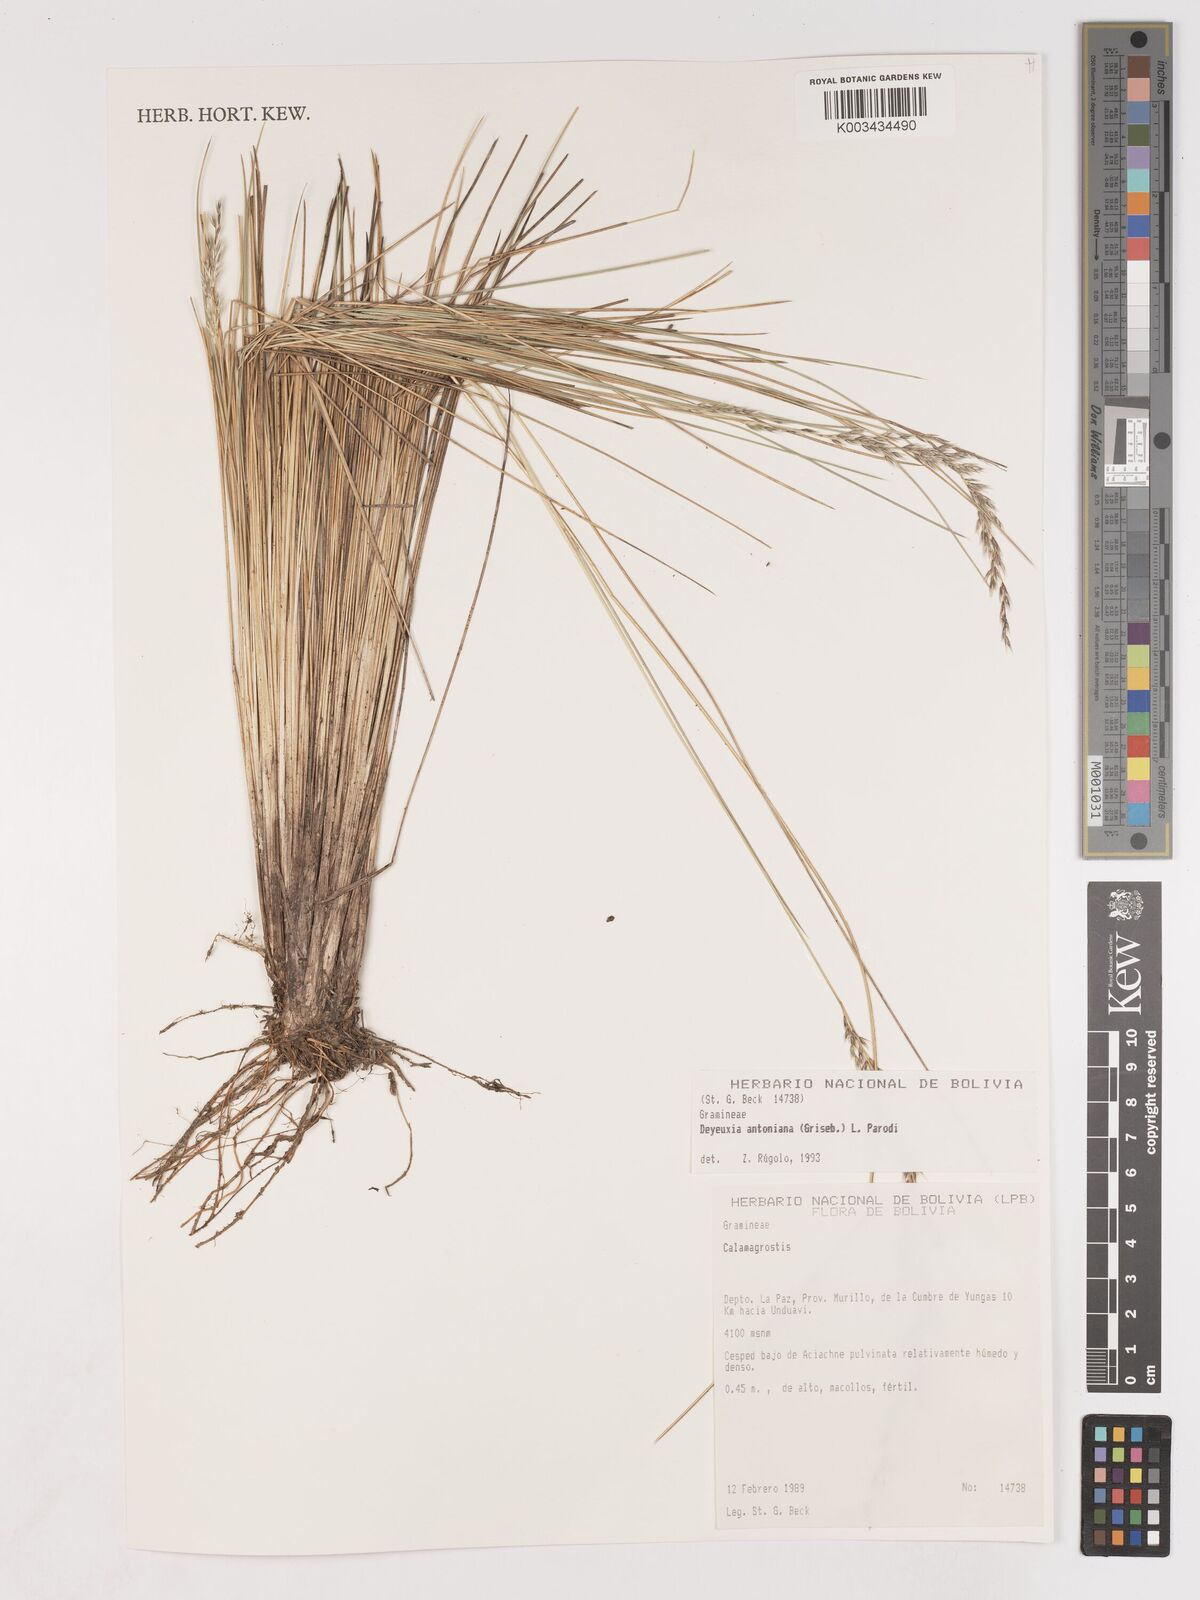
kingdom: Plantae
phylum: Tracheophyta
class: Liliopsida
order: Poales
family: Poaceae
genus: Cinnagrostis
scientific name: Cinnagrostis rigida
